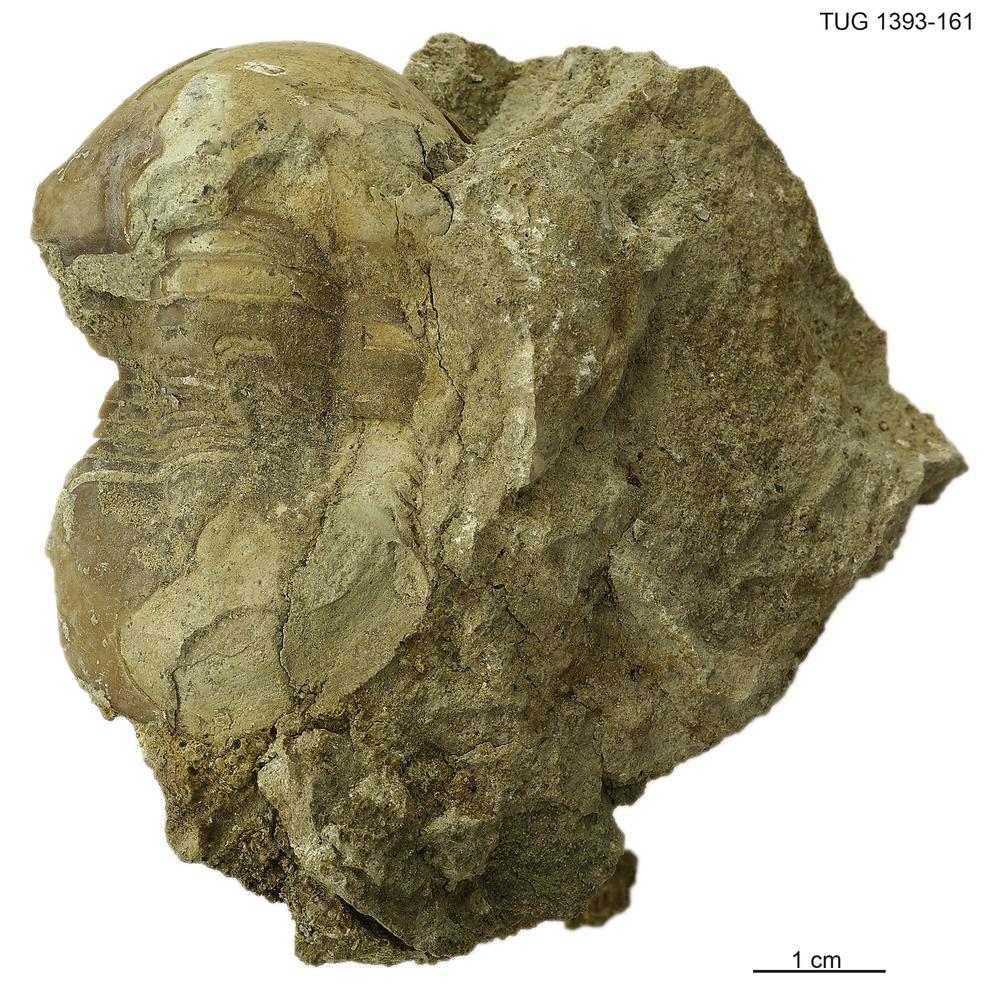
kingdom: Animalia
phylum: Arthropoda
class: Trilobita
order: Corynexochida
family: Illaenidae
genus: Illaenus
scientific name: Illaenus
